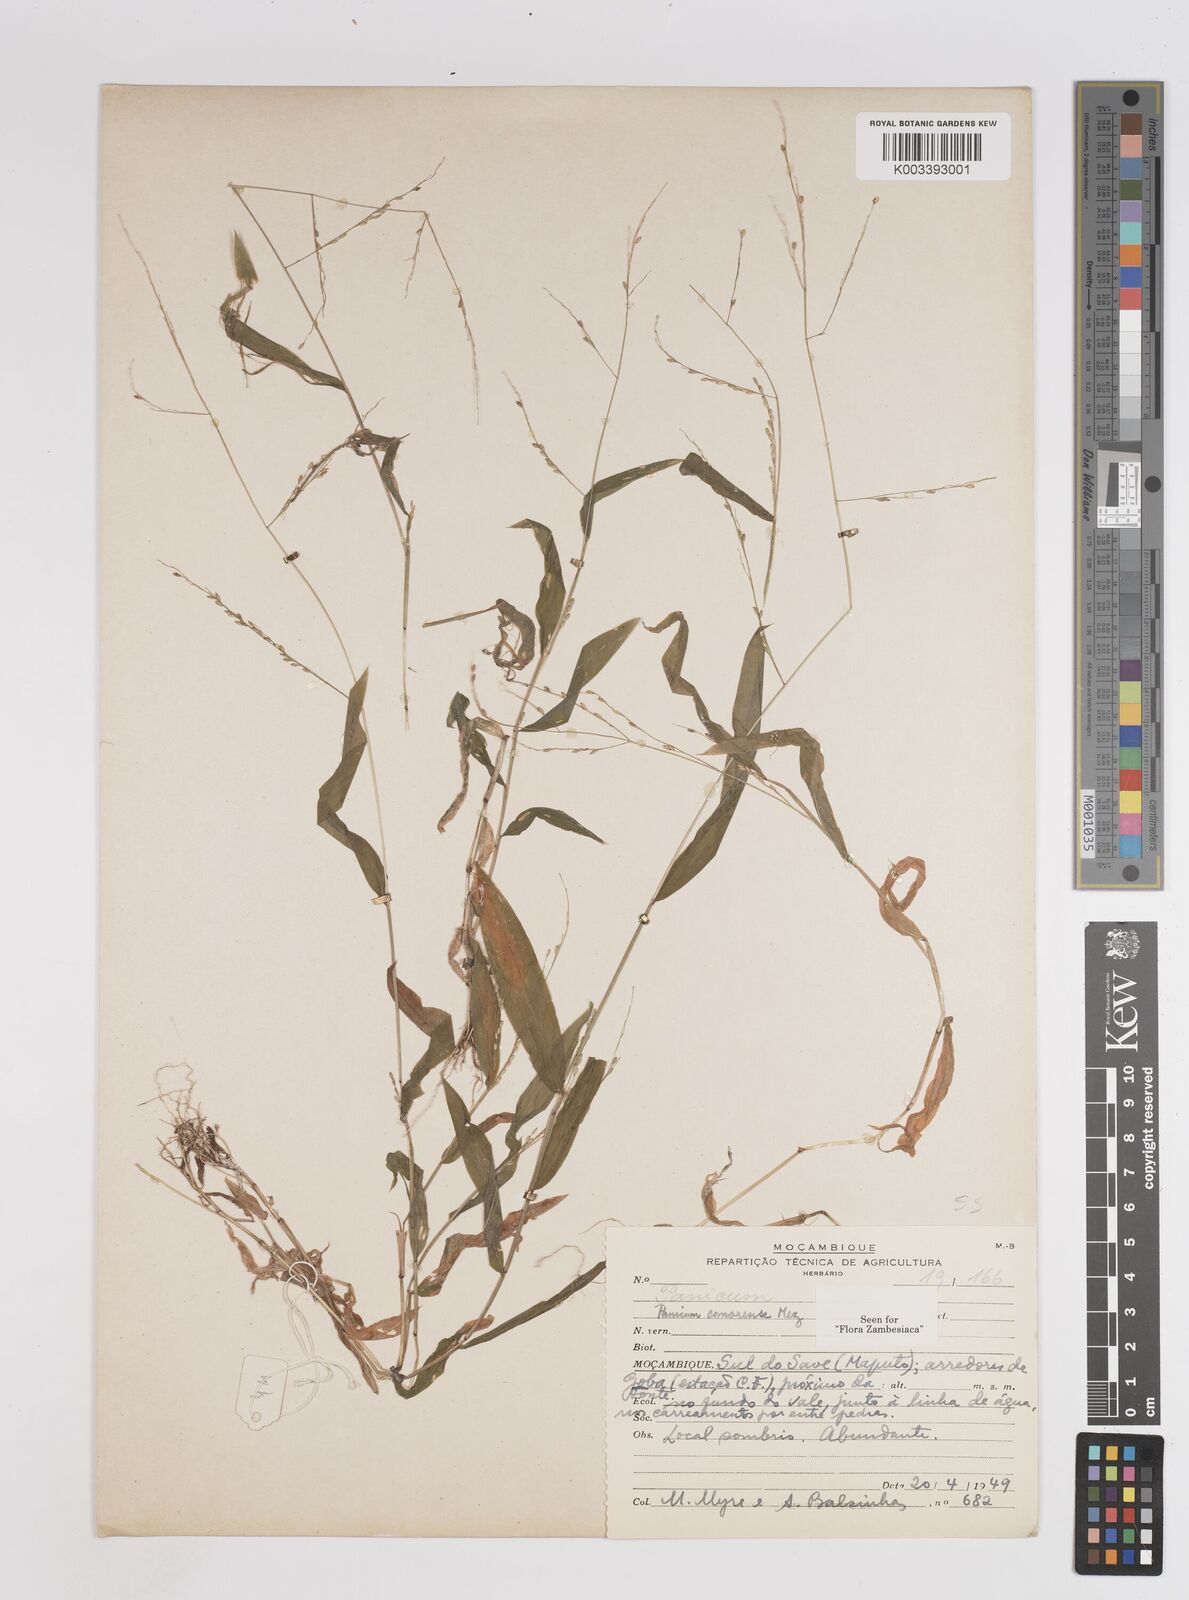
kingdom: Plantae
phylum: Tracheophyta
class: Liliopsida
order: Poales
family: Poaceae
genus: Panicum
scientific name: Panicum comorense
